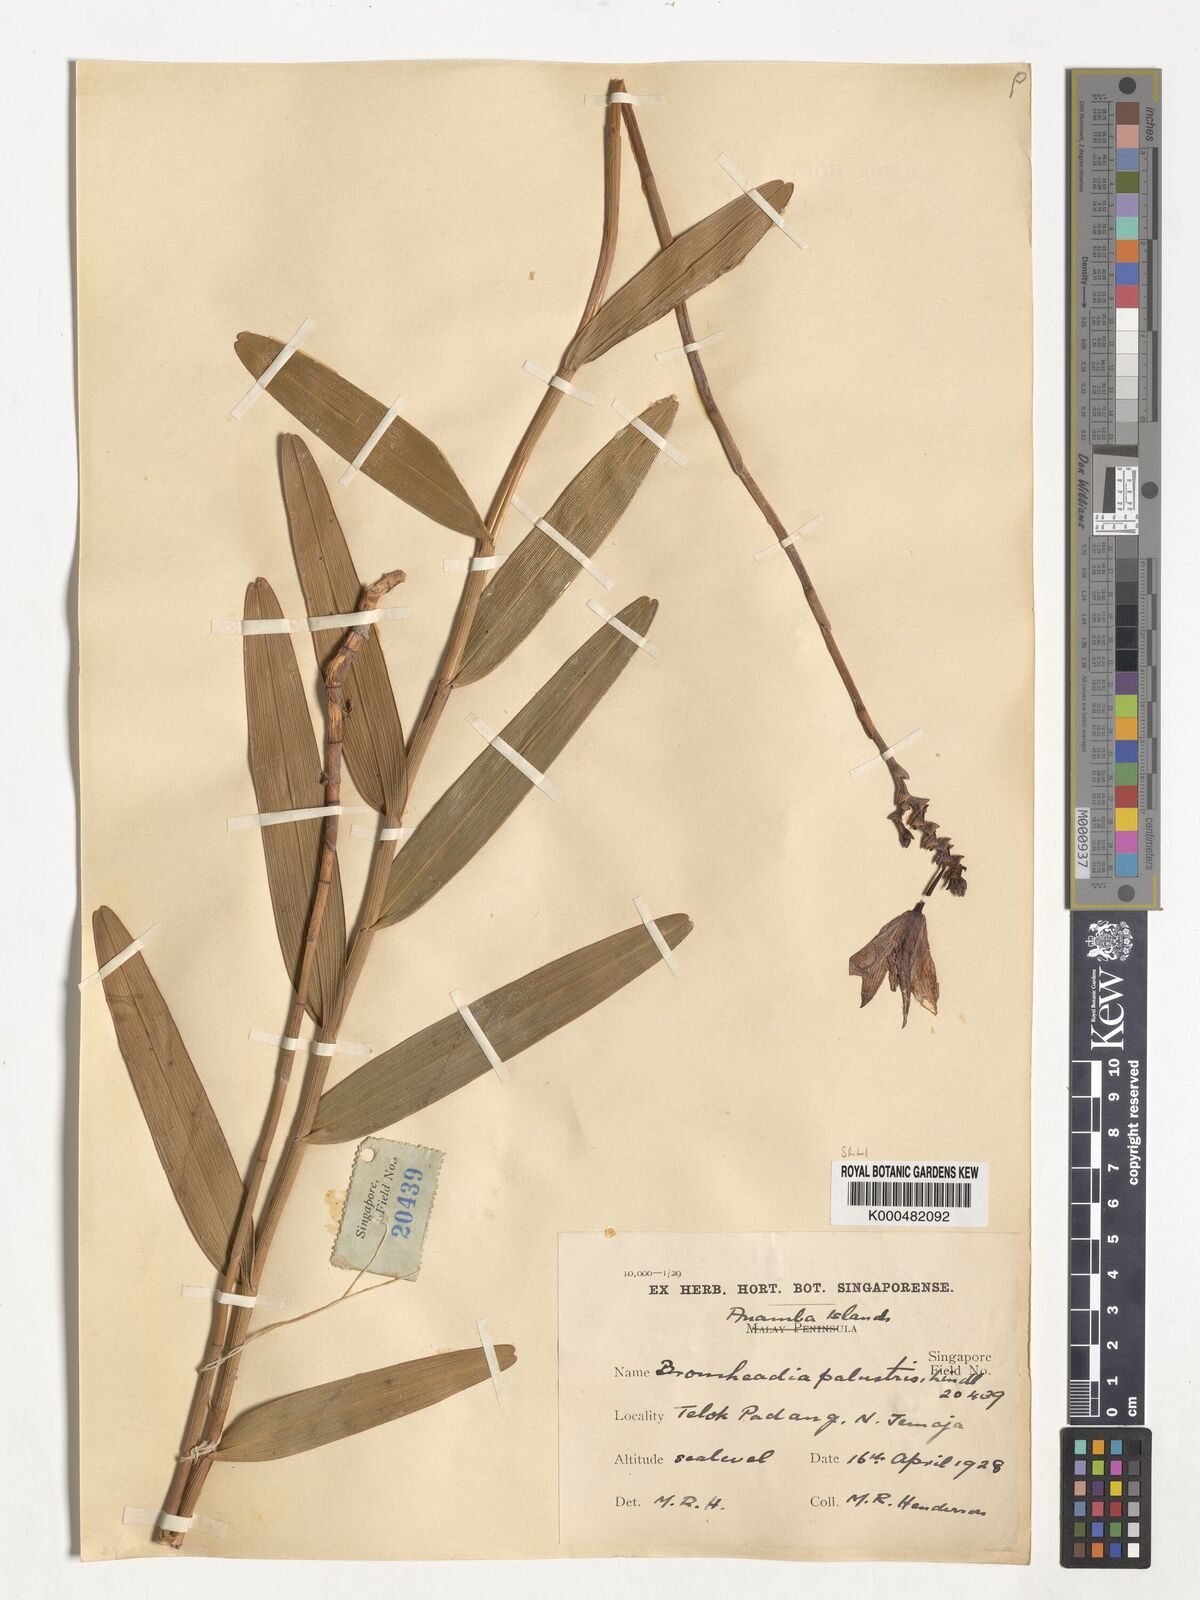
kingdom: Plantae
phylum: Tracheophyta
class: Liliopsida
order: Asparagales
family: Orchidaceae
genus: Bromheadia
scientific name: Bromheadia finlaysoniana
